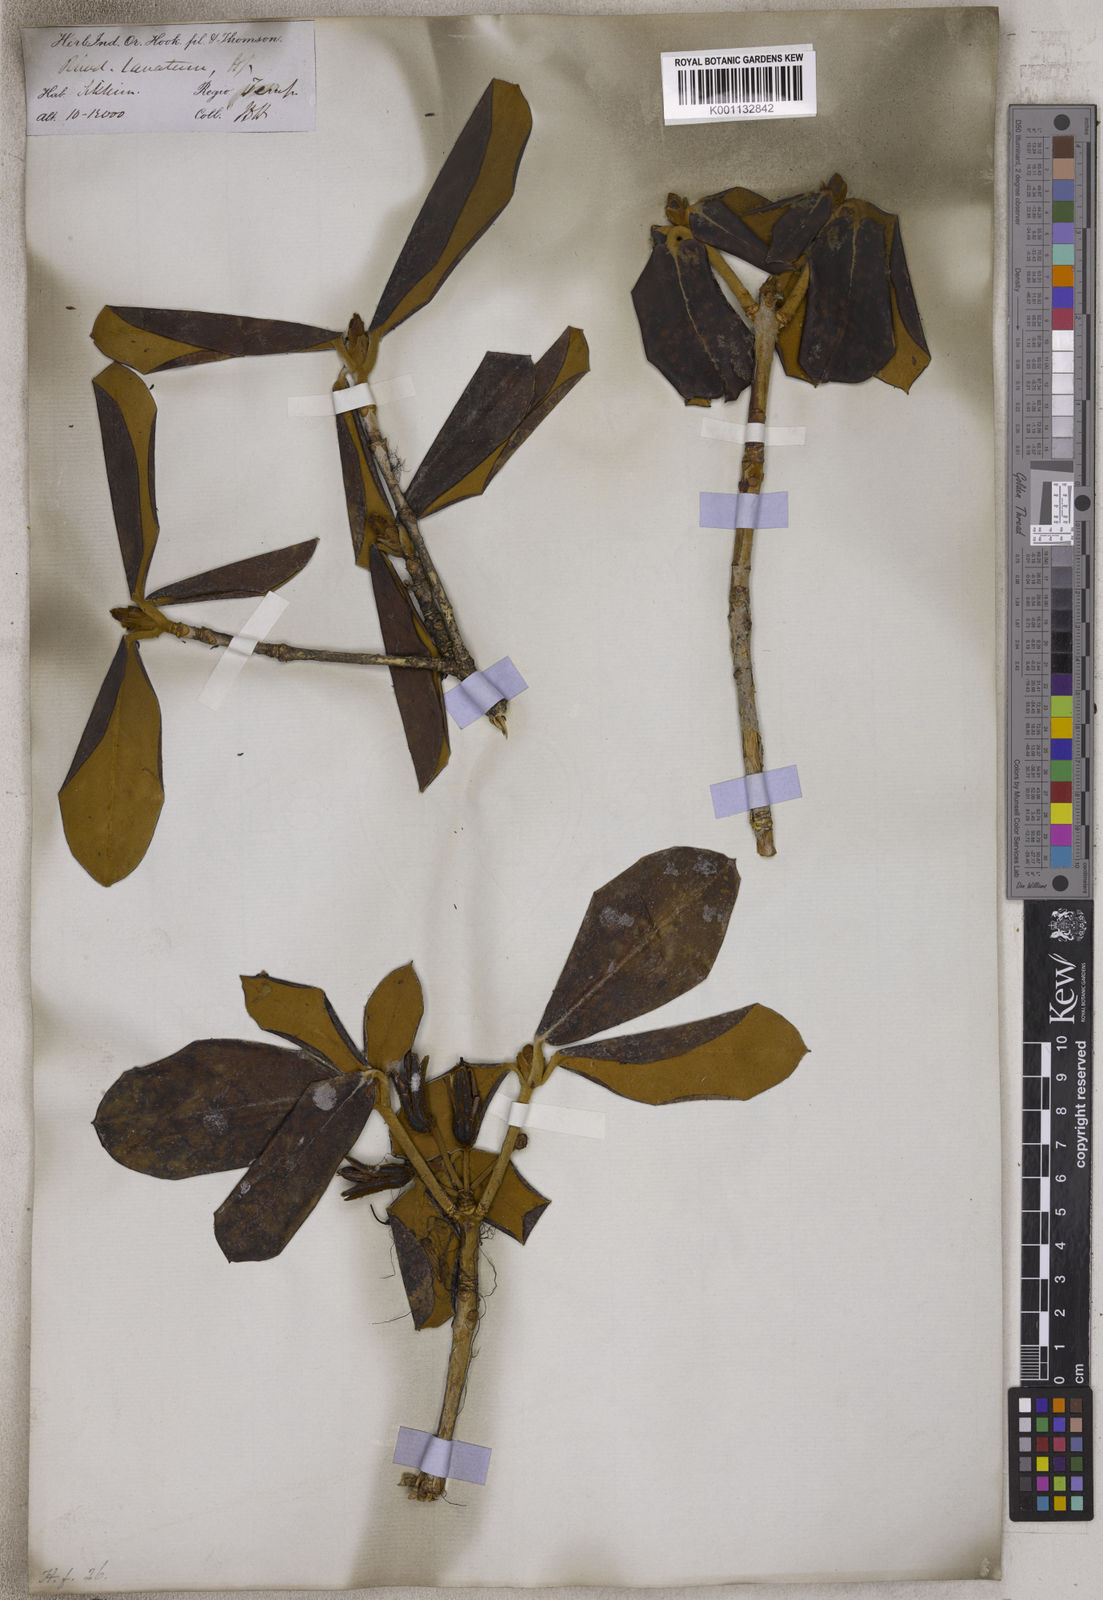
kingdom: Plantae
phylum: Tracheophyta
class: Magnoliopsida
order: Ericales
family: Ericaceae
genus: Rhododendron
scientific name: Rhododendron lanatum
